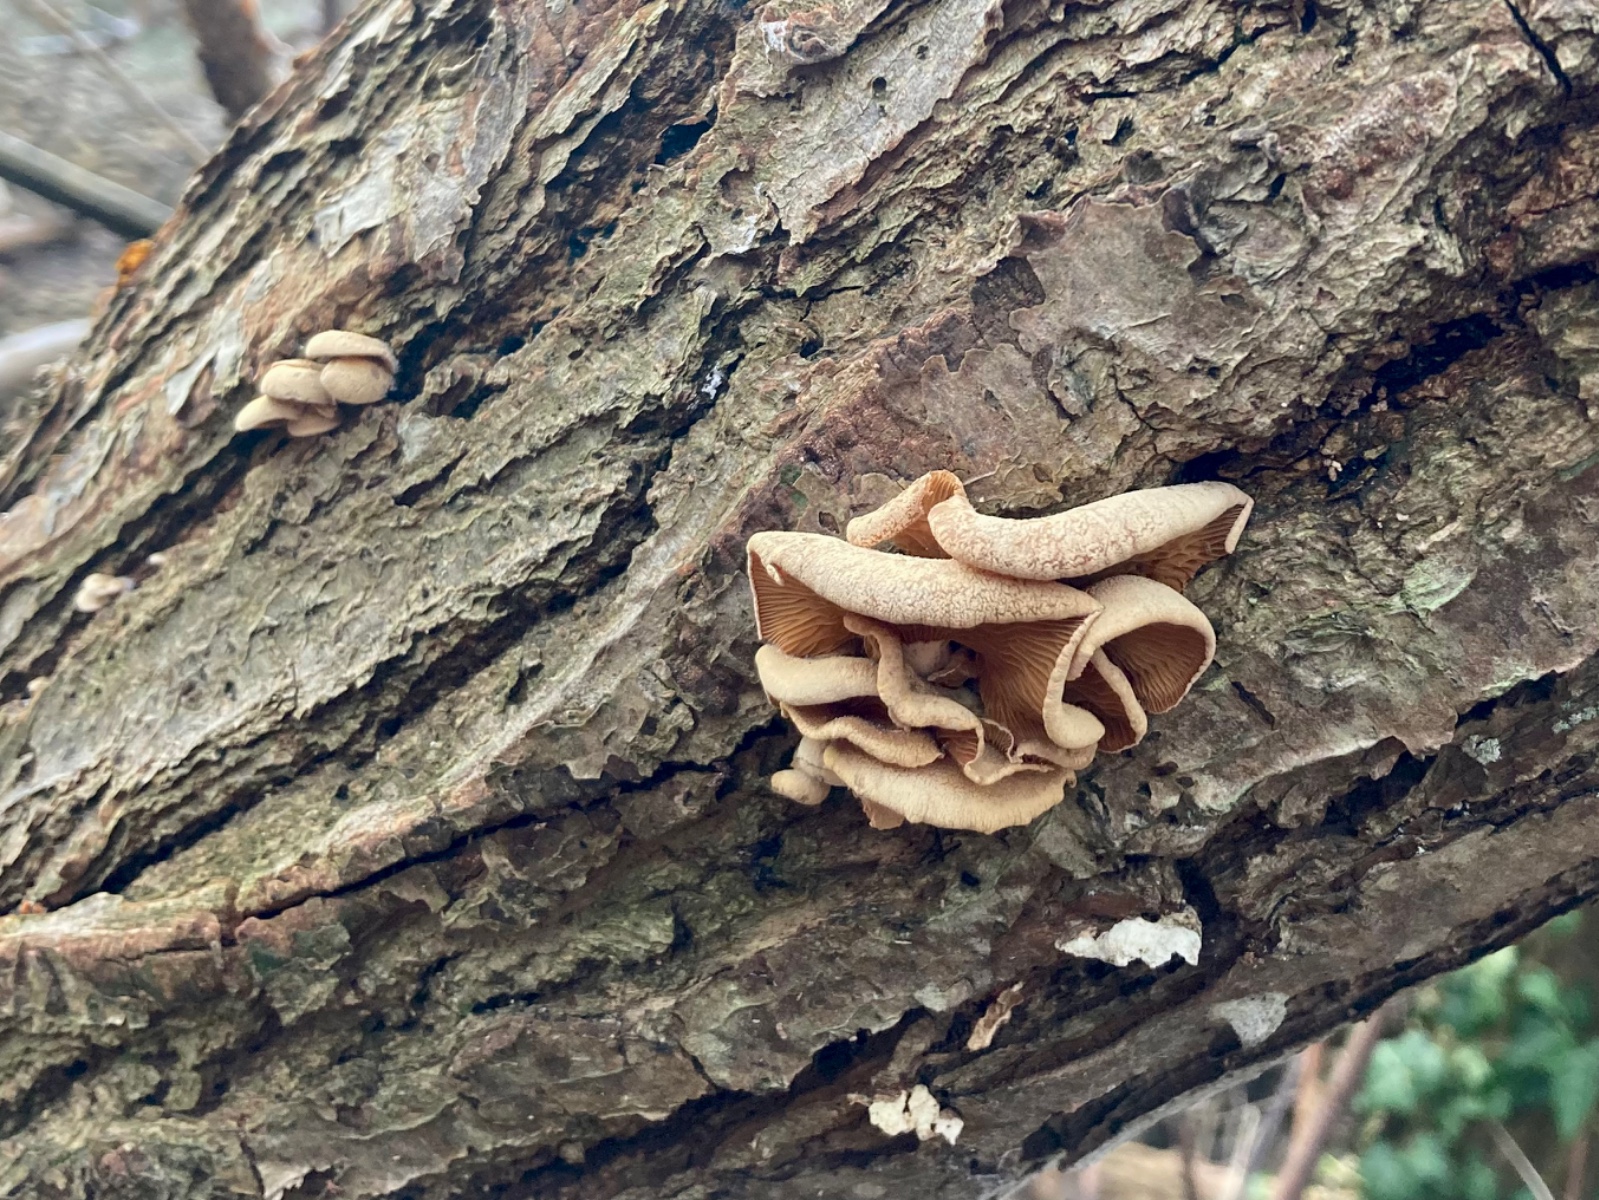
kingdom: Fungi
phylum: Basidiomycota
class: Agaricomycetes
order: Agaricales
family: Mycenaceae
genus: Panellus
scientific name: Panellus stipticus
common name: kliddet epaulethat
